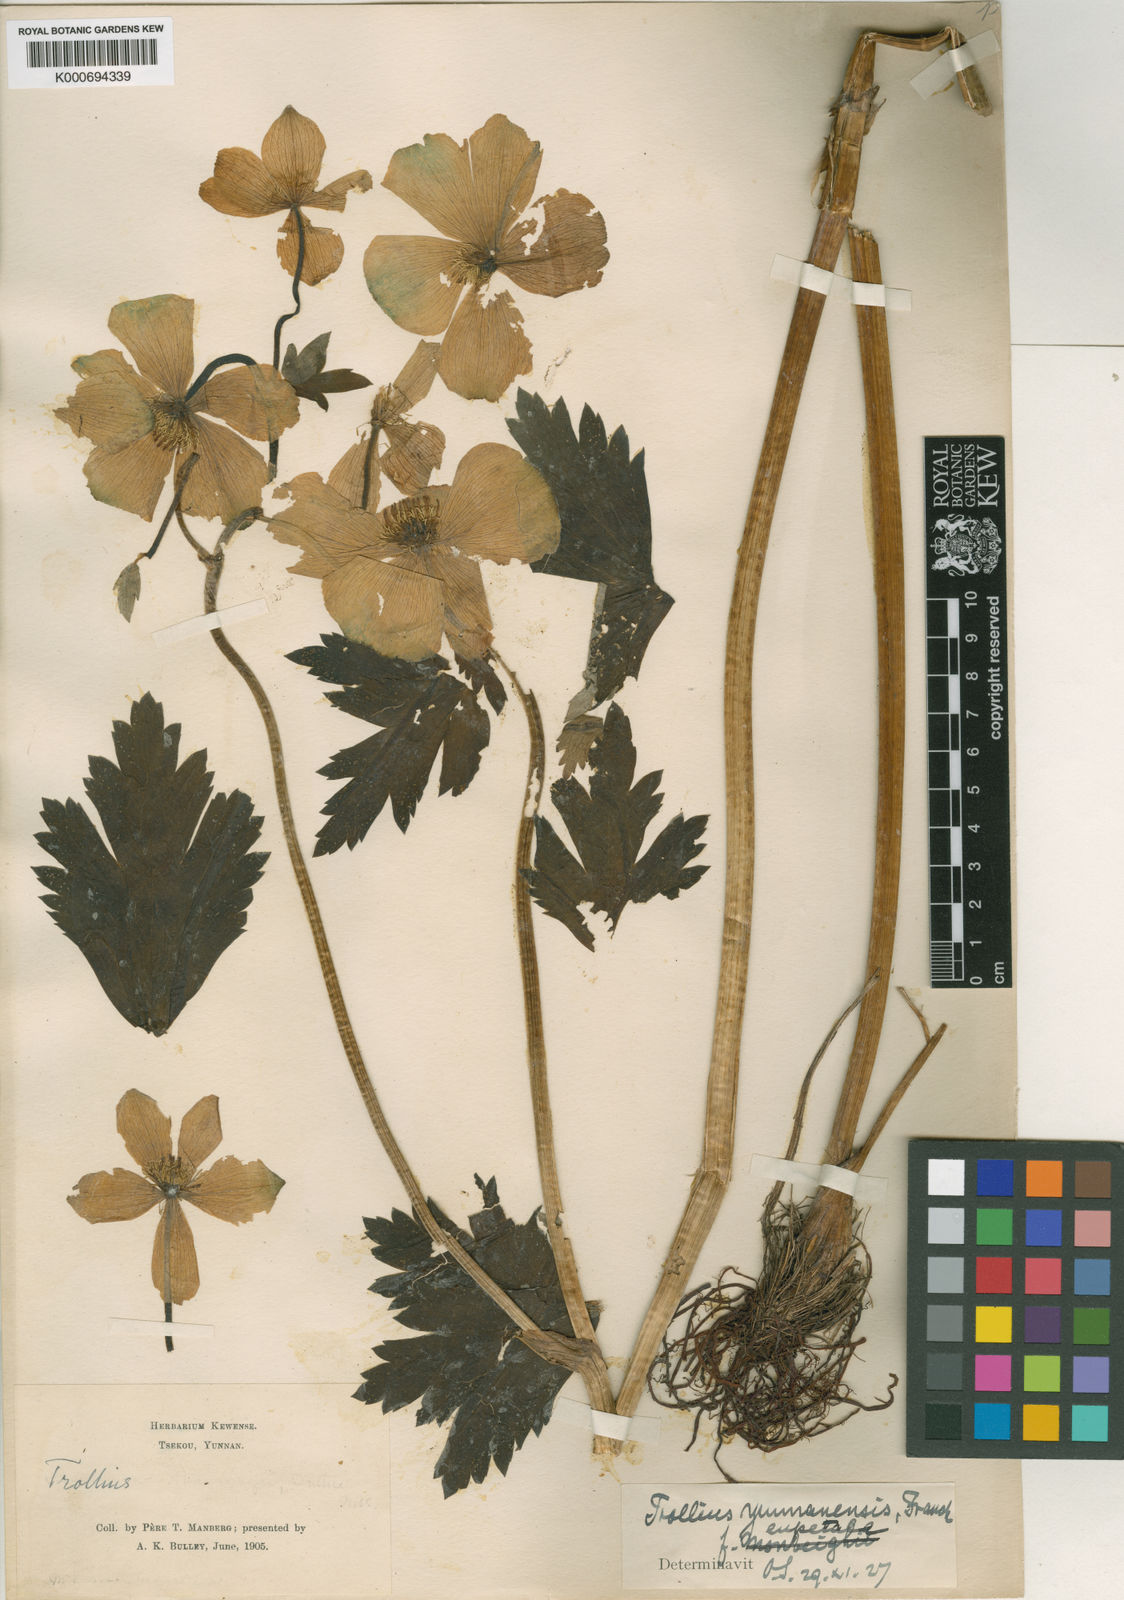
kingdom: Plantae
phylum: Tracheophyta
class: Magnoliopsida
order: Ranunculales
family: Ranunculaceae
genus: Trollius
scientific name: Trollius yunnanensis
